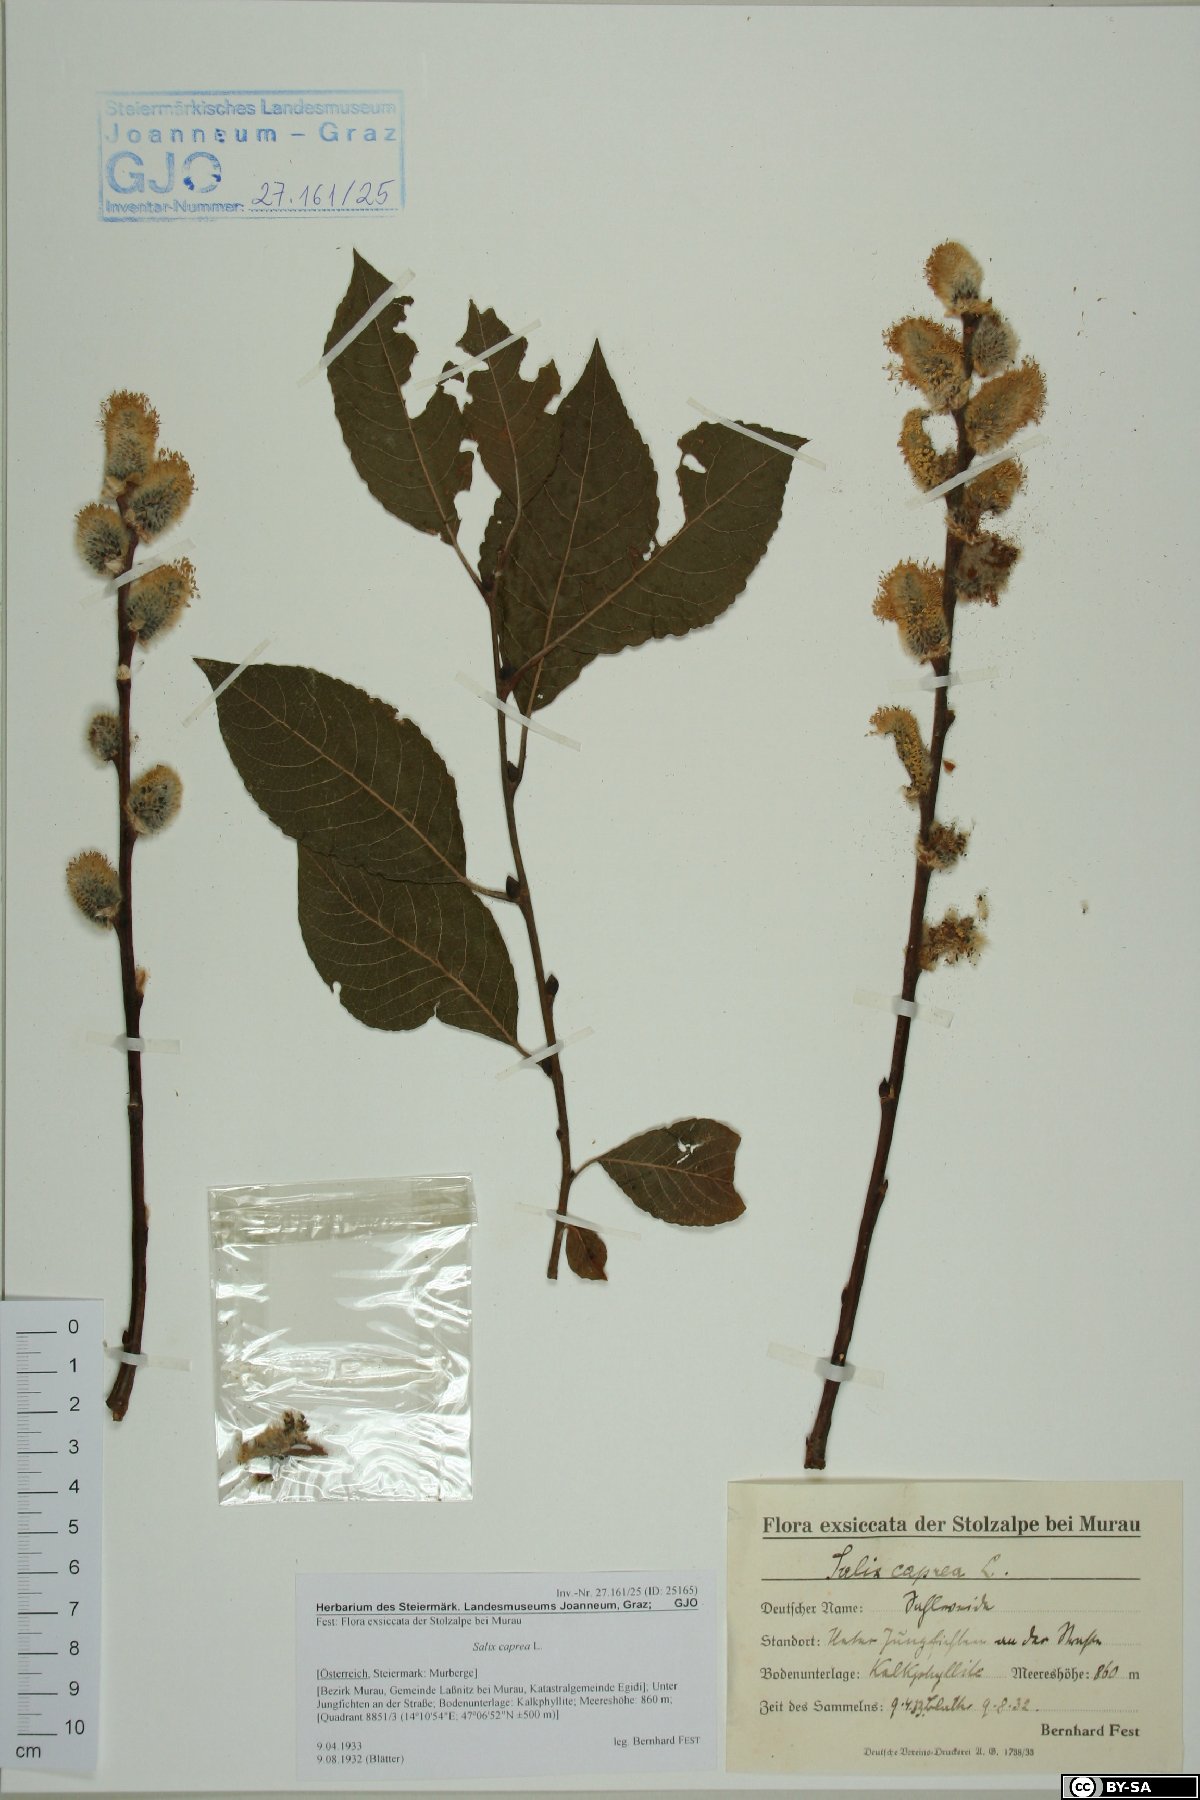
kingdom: Plantae
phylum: Tracheophyta
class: Magnoliopsida
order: Malpighiales
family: Salicaceae
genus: Salix
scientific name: Salix caprea
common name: Goat willow
